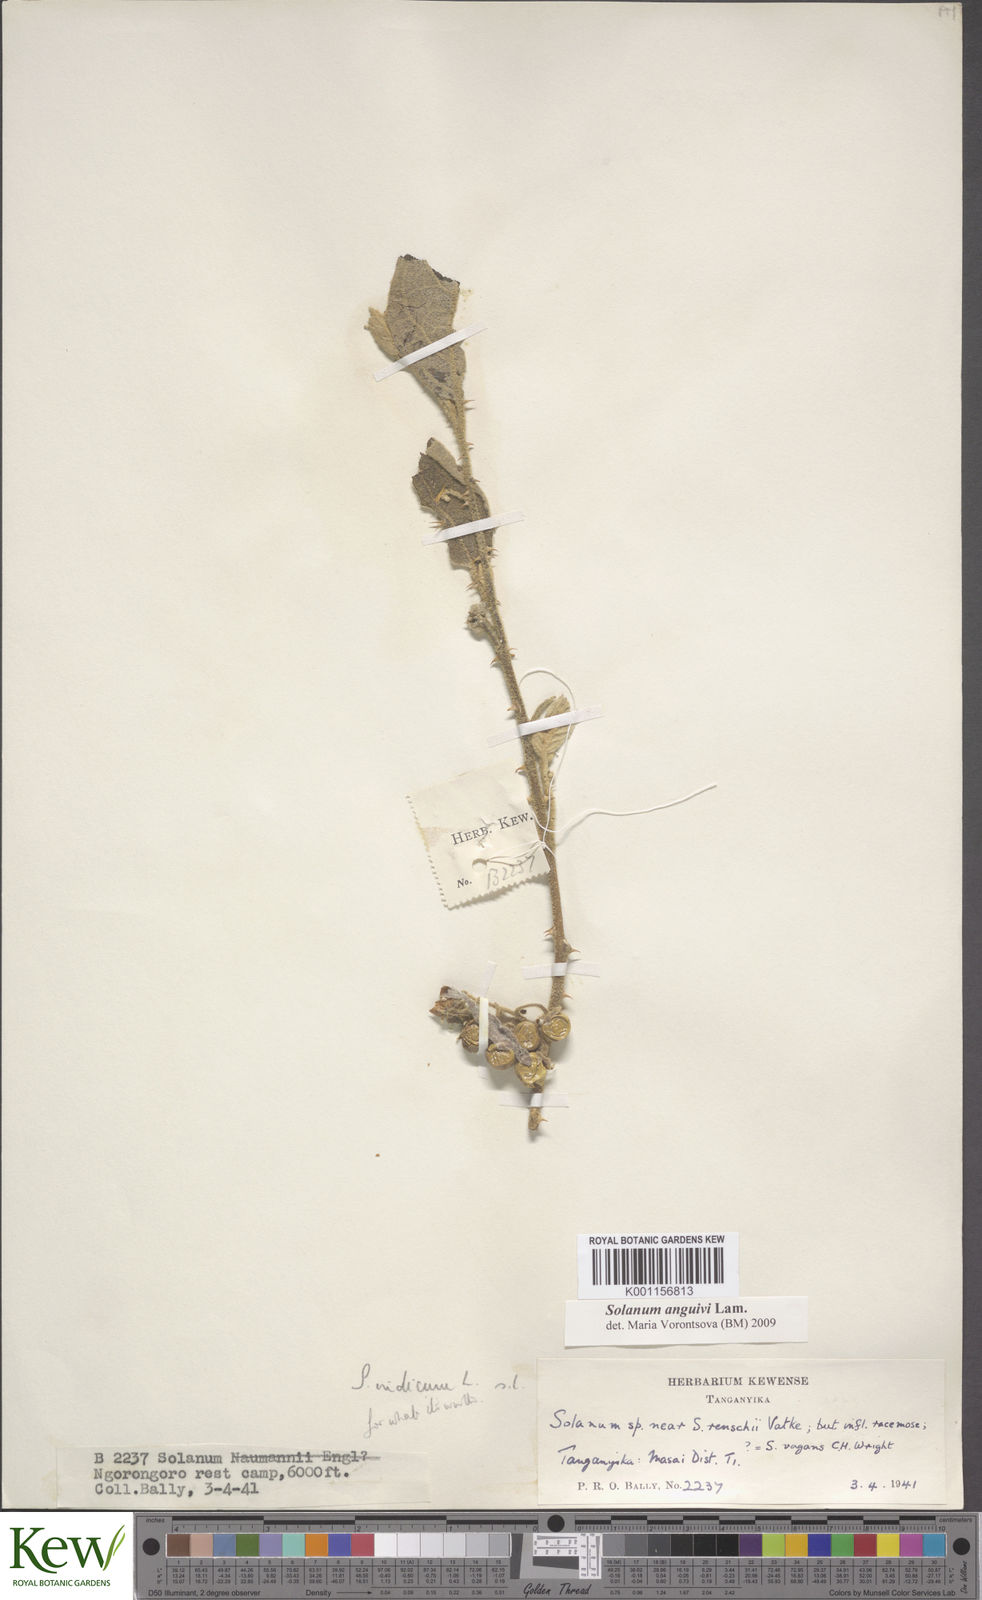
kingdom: Plantae
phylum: Tracheophyta
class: Magnoliopsida
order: Solanales
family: Solanaceae
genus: Solanum
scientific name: Solanum anguivi
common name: Forest bitterberry
